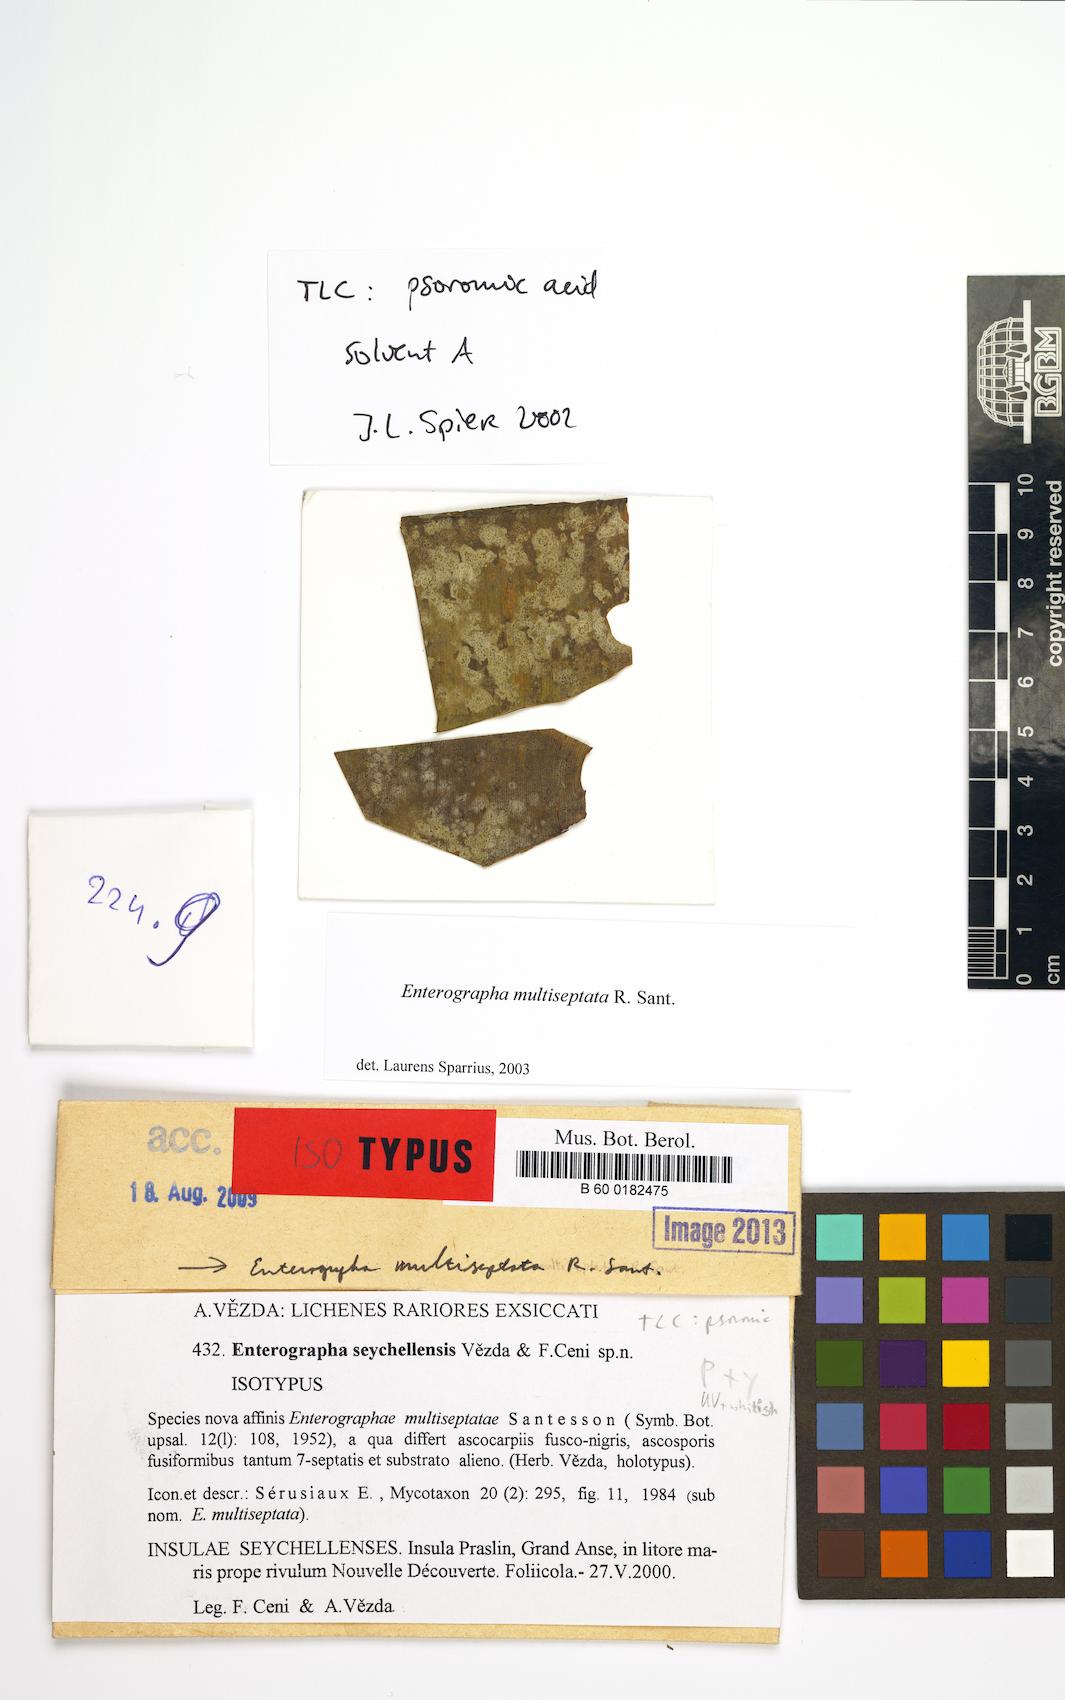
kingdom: Fungi
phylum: Ascomycota
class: Arthoniomycetes
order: Arthoniales
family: Roccellaceae
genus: Enterographa
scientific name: Enterographa seychellensis
